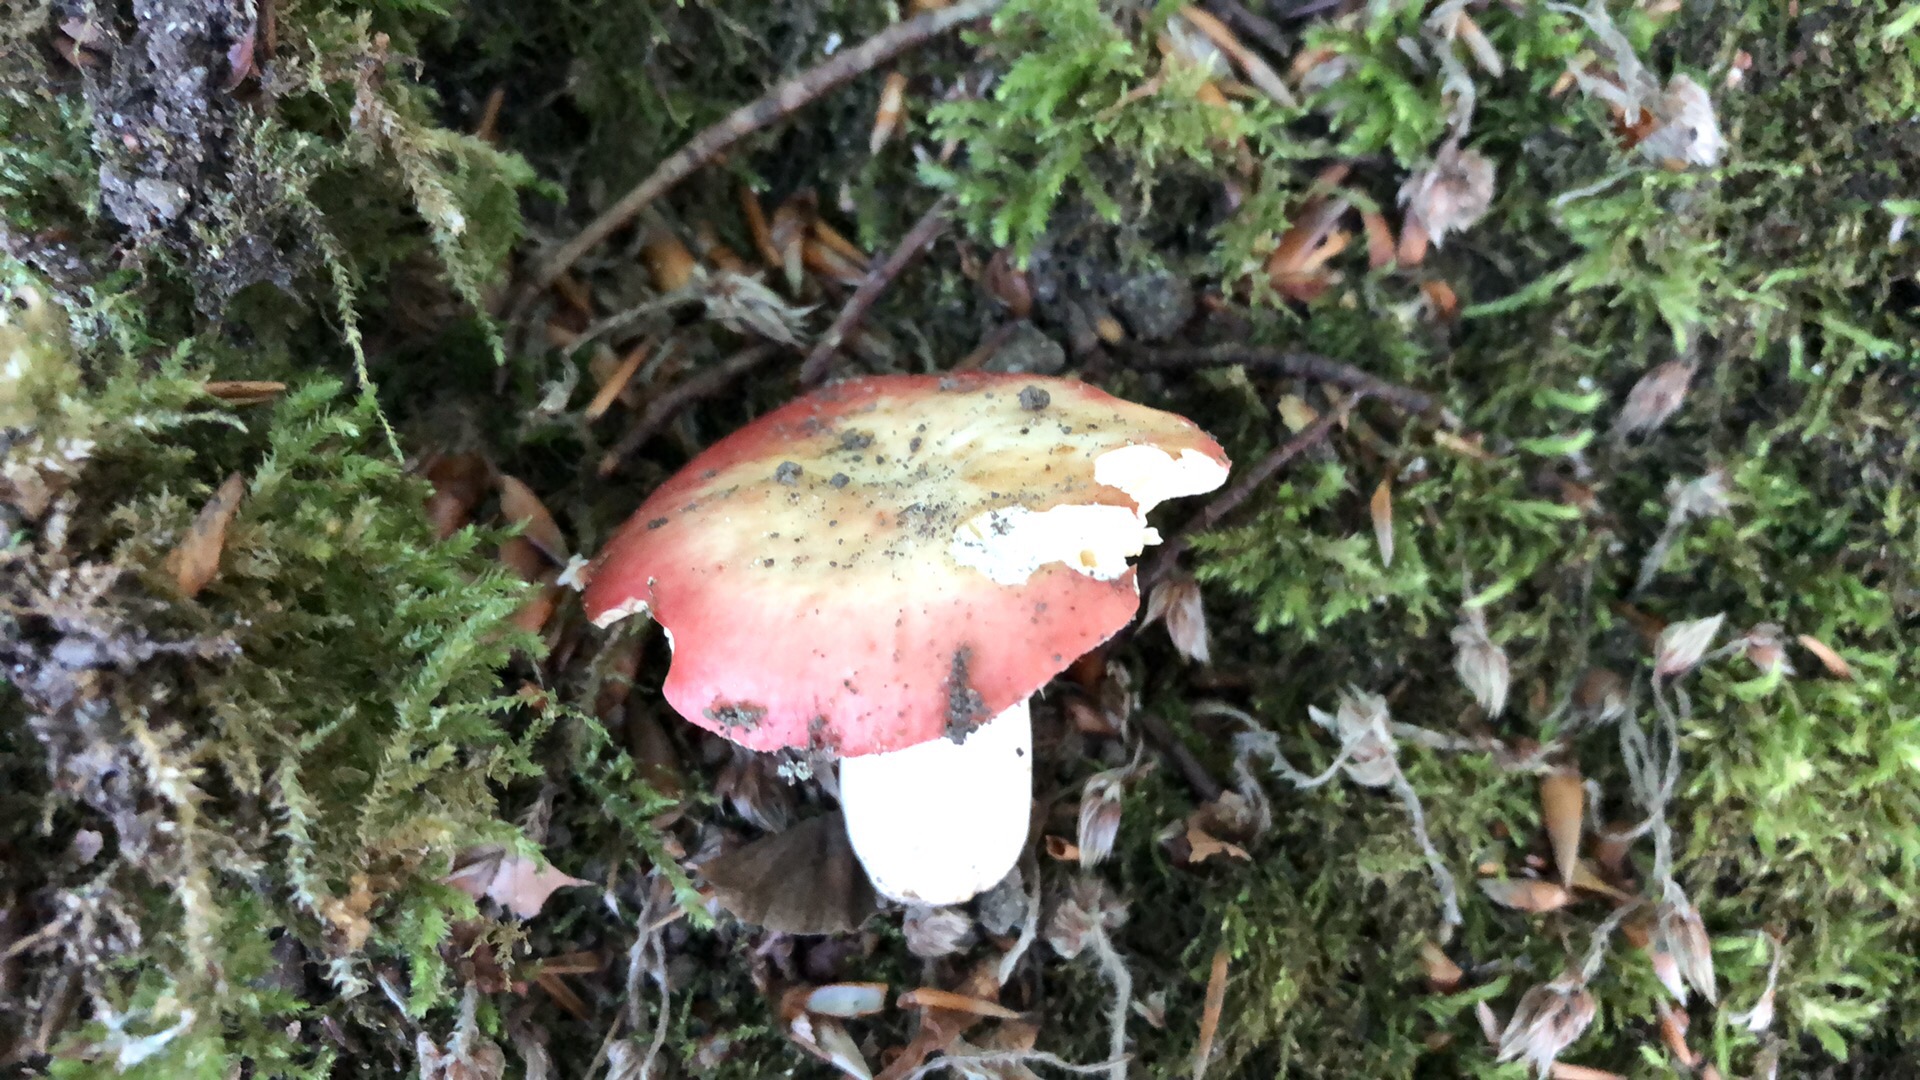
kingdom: Fungi
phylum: Basidiomycota
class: Agaricomycetes
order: Russulales
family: Russulaceae
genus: Russula
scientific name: Russula maculata
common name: plettet skørhat
